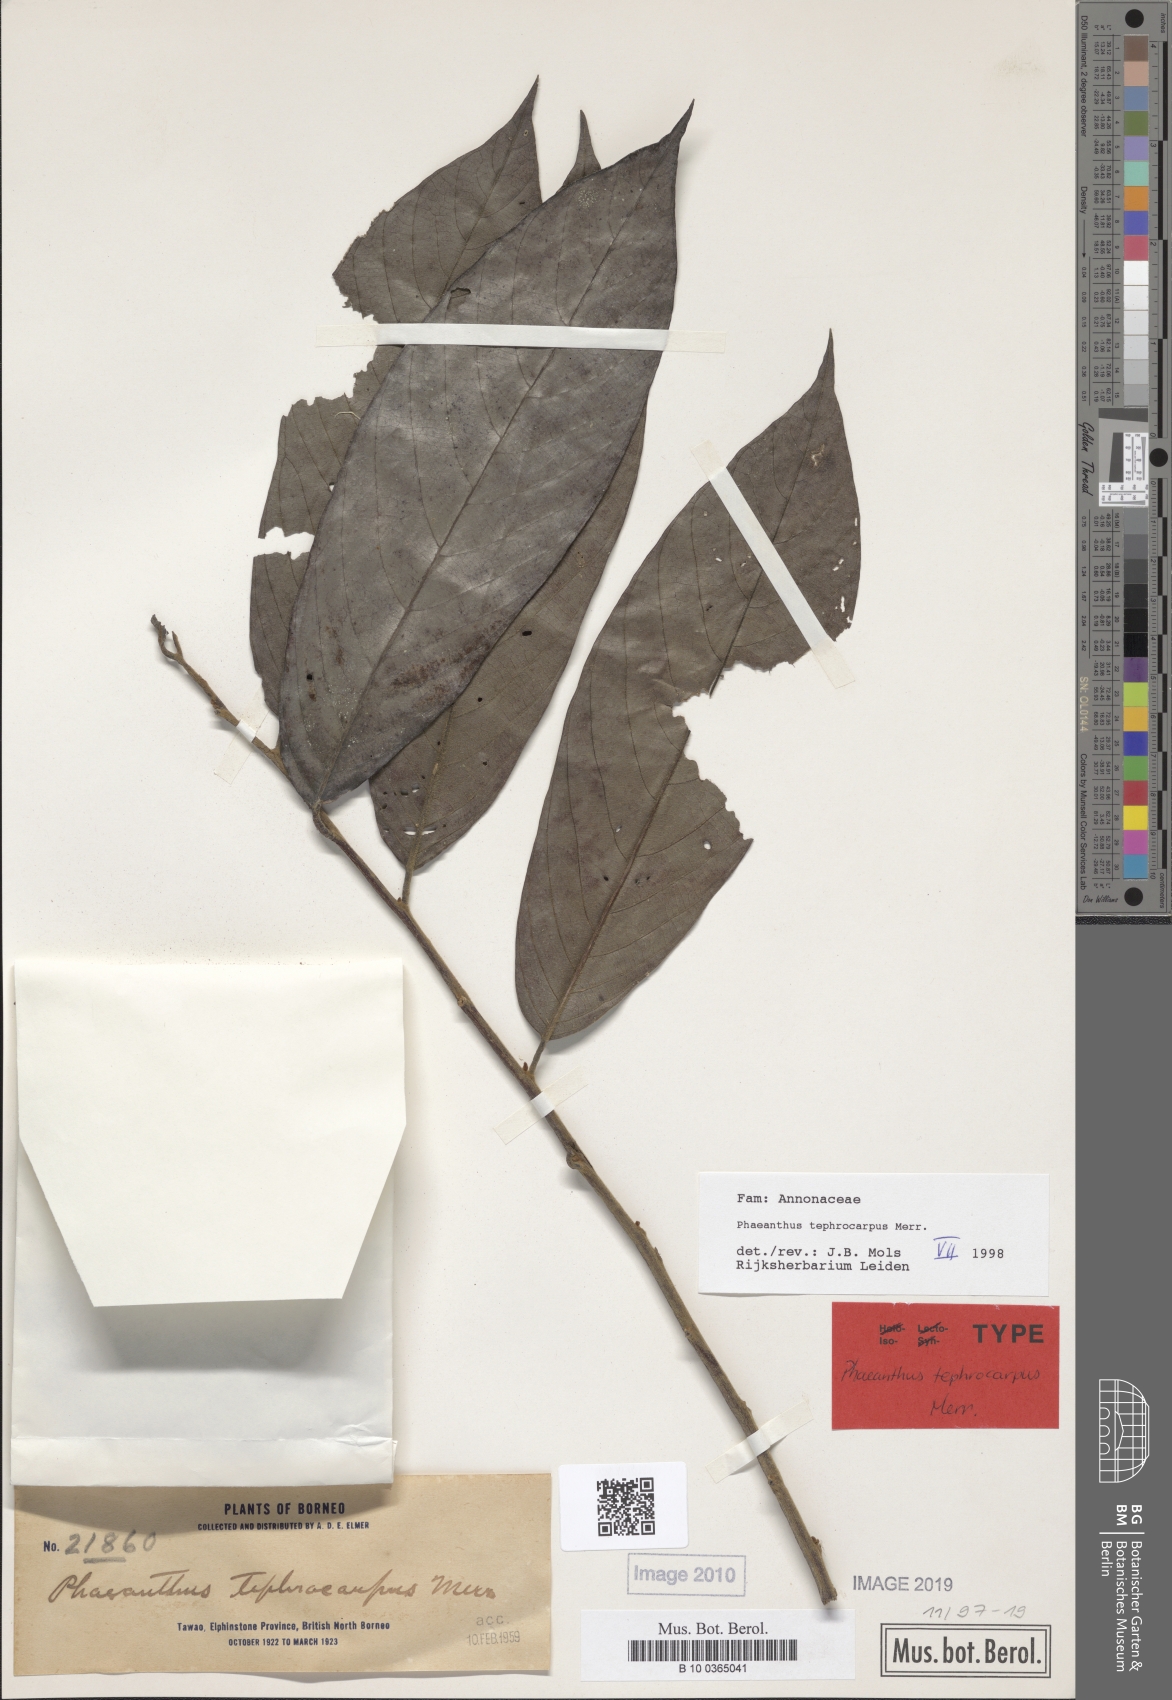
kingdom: Plantae
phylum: Tracheophyta
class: Magnoliopsida
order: Magnoliales
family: Annonaceae
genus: Phaeanthus
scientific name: Phaeanthus tephrocarpus
